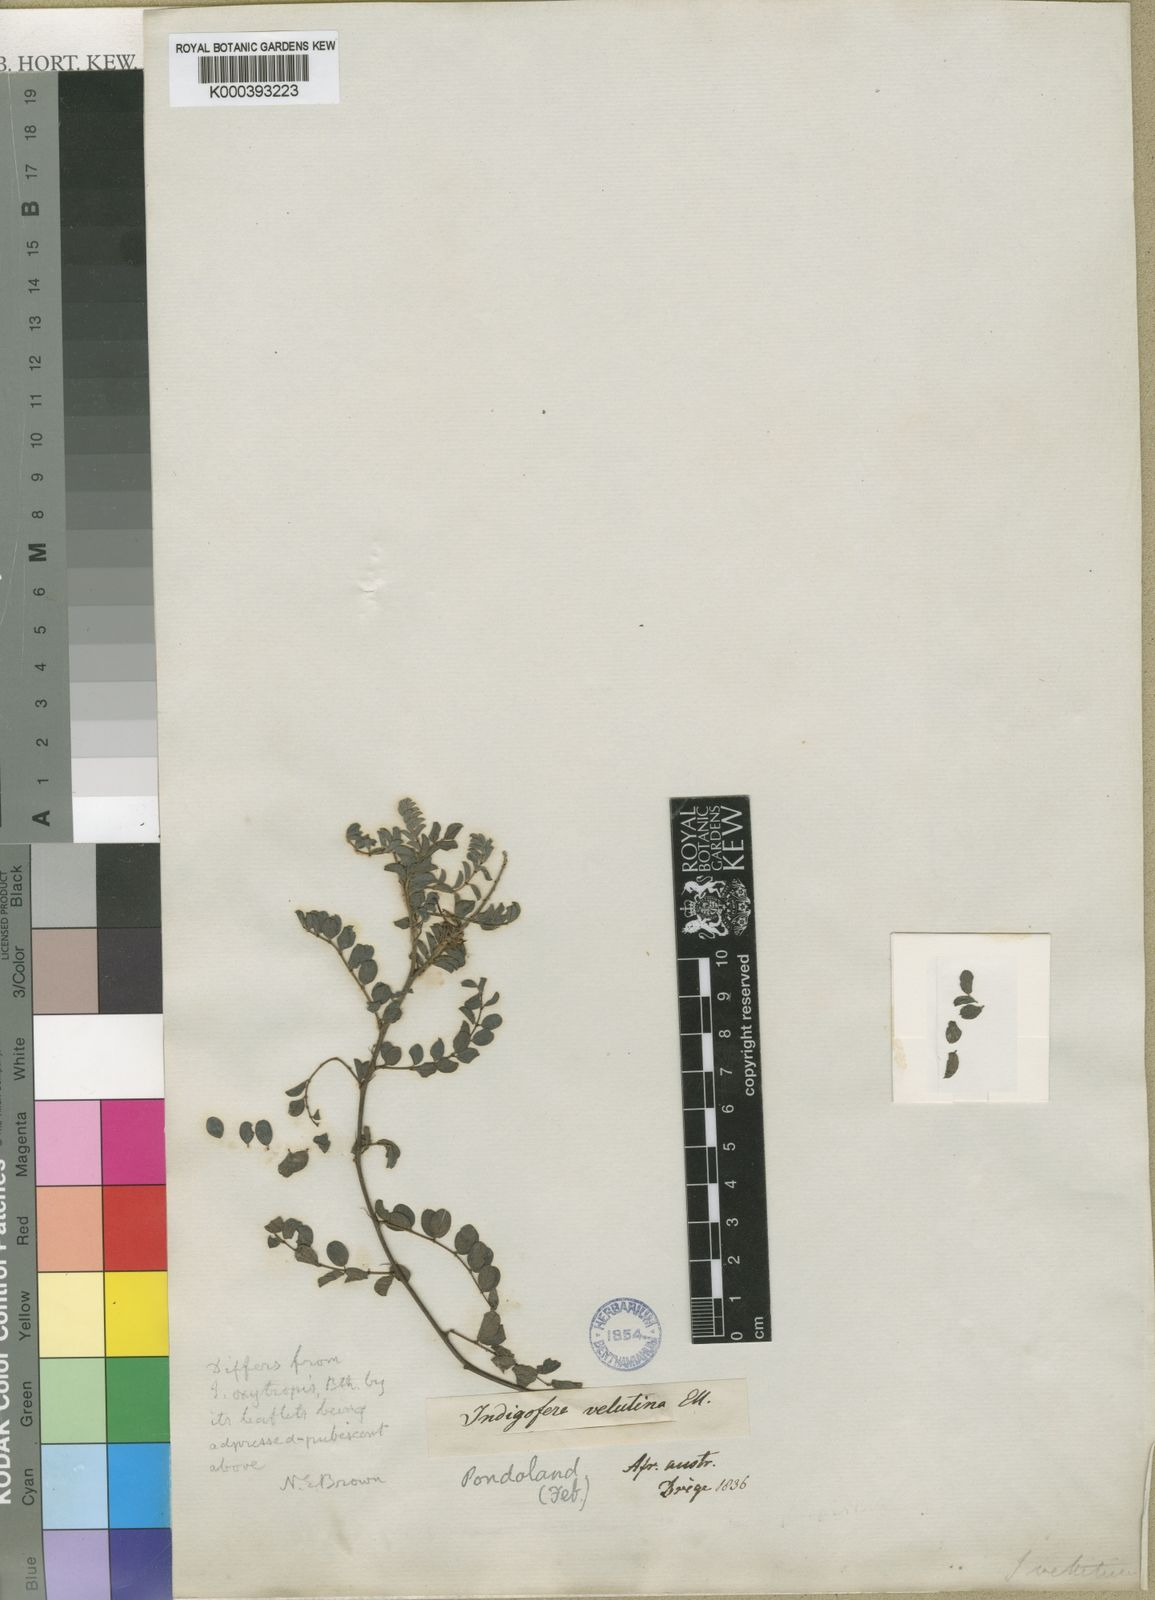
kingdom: Plantae
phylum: Tracheophyta
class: Magnoliopsida
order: Fabales
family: Fabaceae
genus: Indigofera
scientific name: Indigofera velutina
